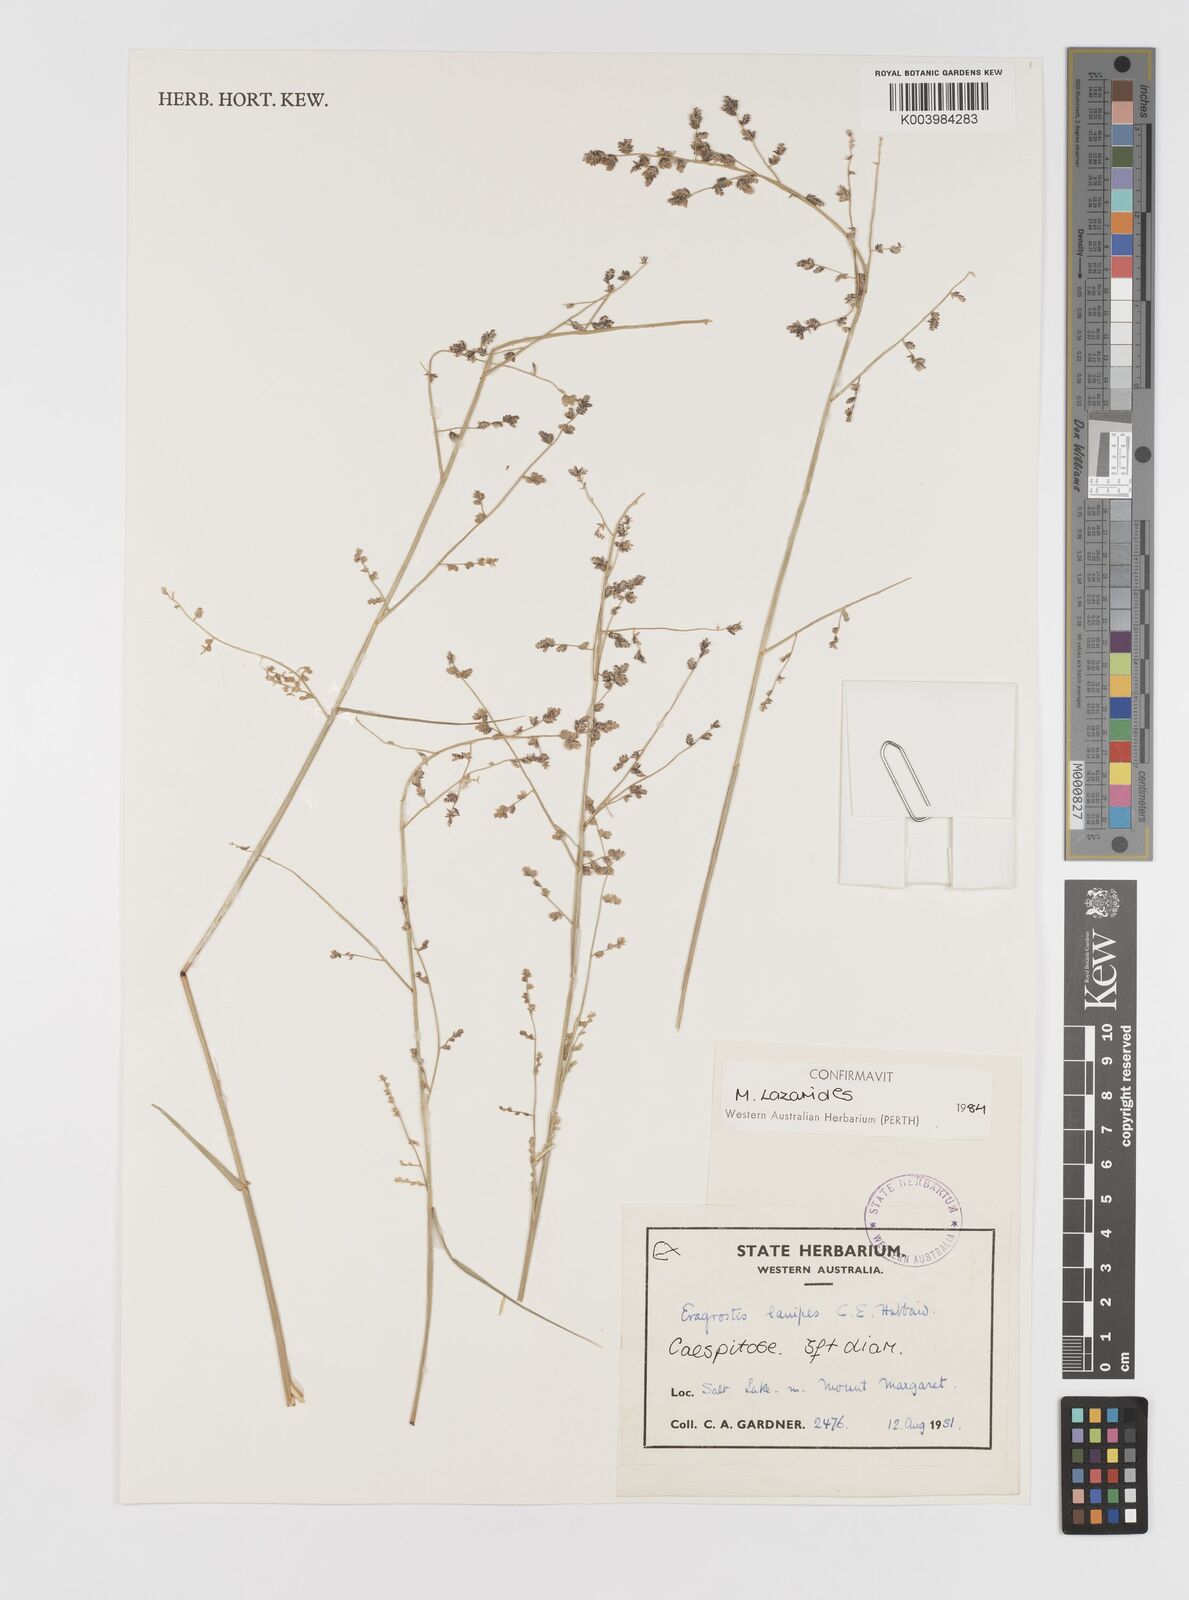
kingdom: Plantae
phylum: Tracheophyta
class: Liliopsida
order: Poales
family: Poaceae
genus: Eragrostis
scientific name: Eragrostis lanipes
